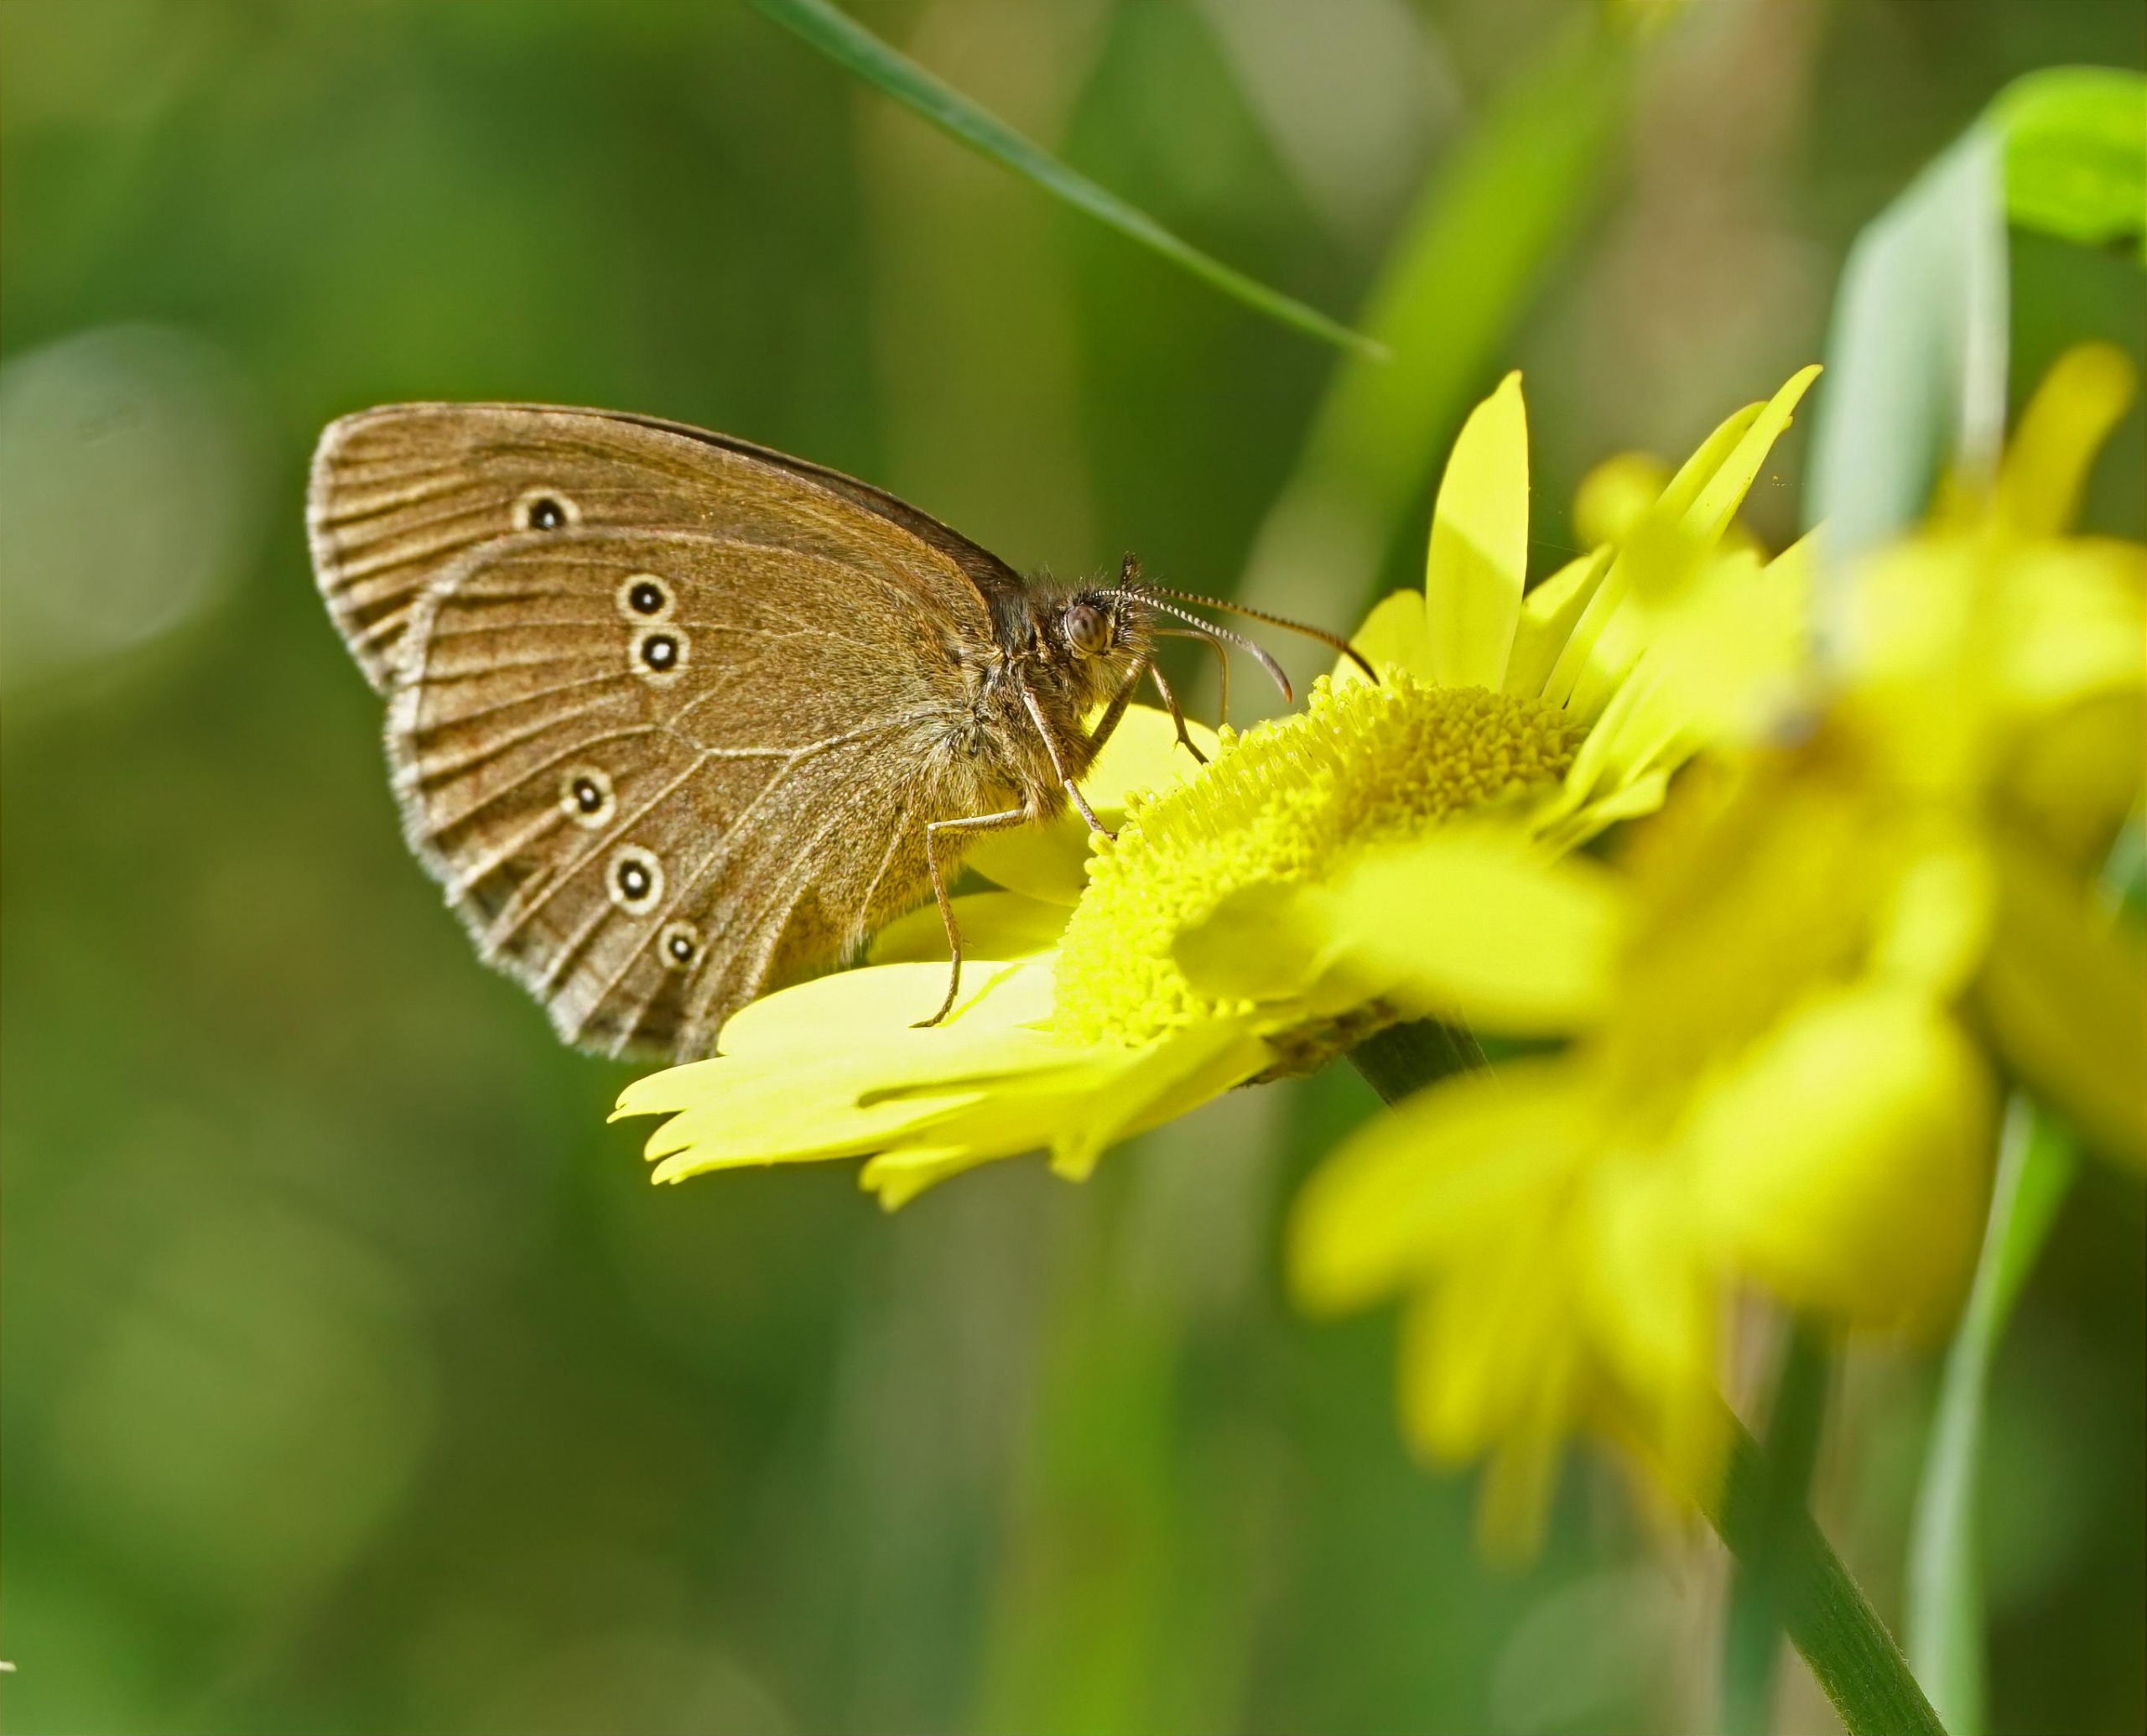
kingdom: Animalia
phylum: Arthropoda
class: Insecta
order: Lepidoptera
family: Nymphalidae
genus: Aphantopus
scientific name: Aphantopus hyperantus
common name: Engrandøje
